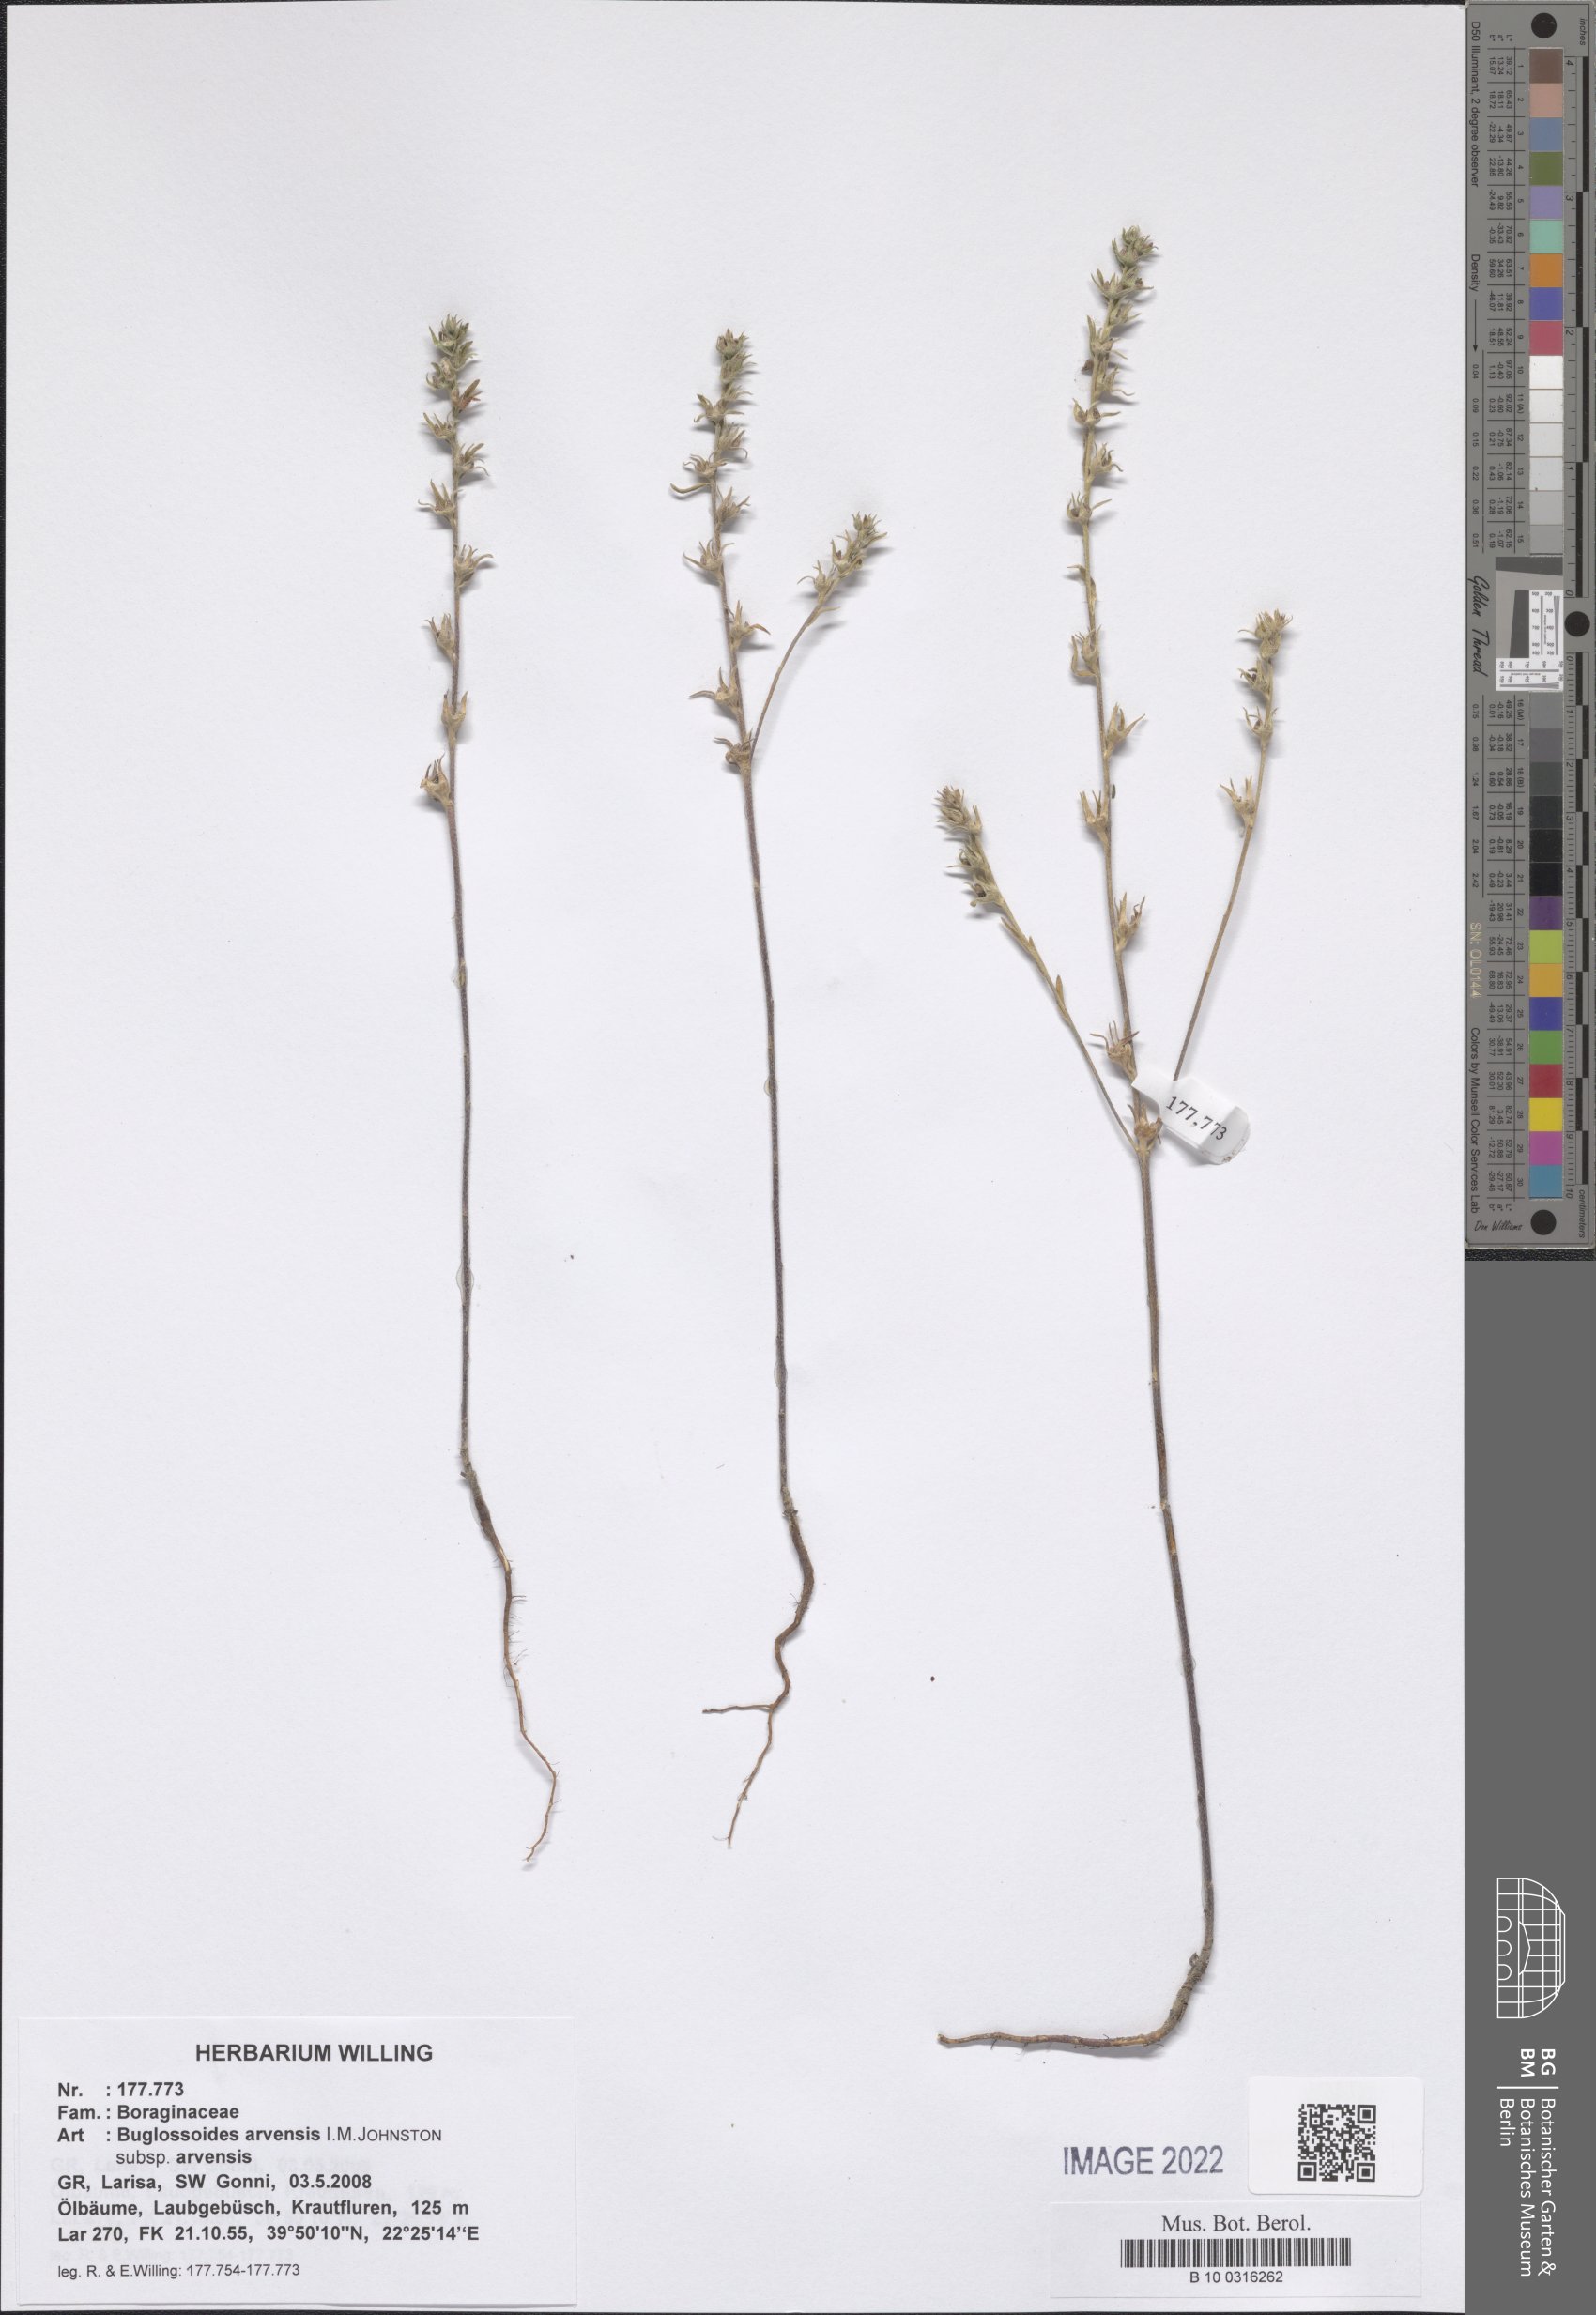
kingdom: Plantae
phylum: Tracheophyta
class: Magnoliopsida
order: Boraginales
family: Boraginaceae
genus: Buglossoides
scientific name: Buglossoides arvensis
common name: Corn gromwell
